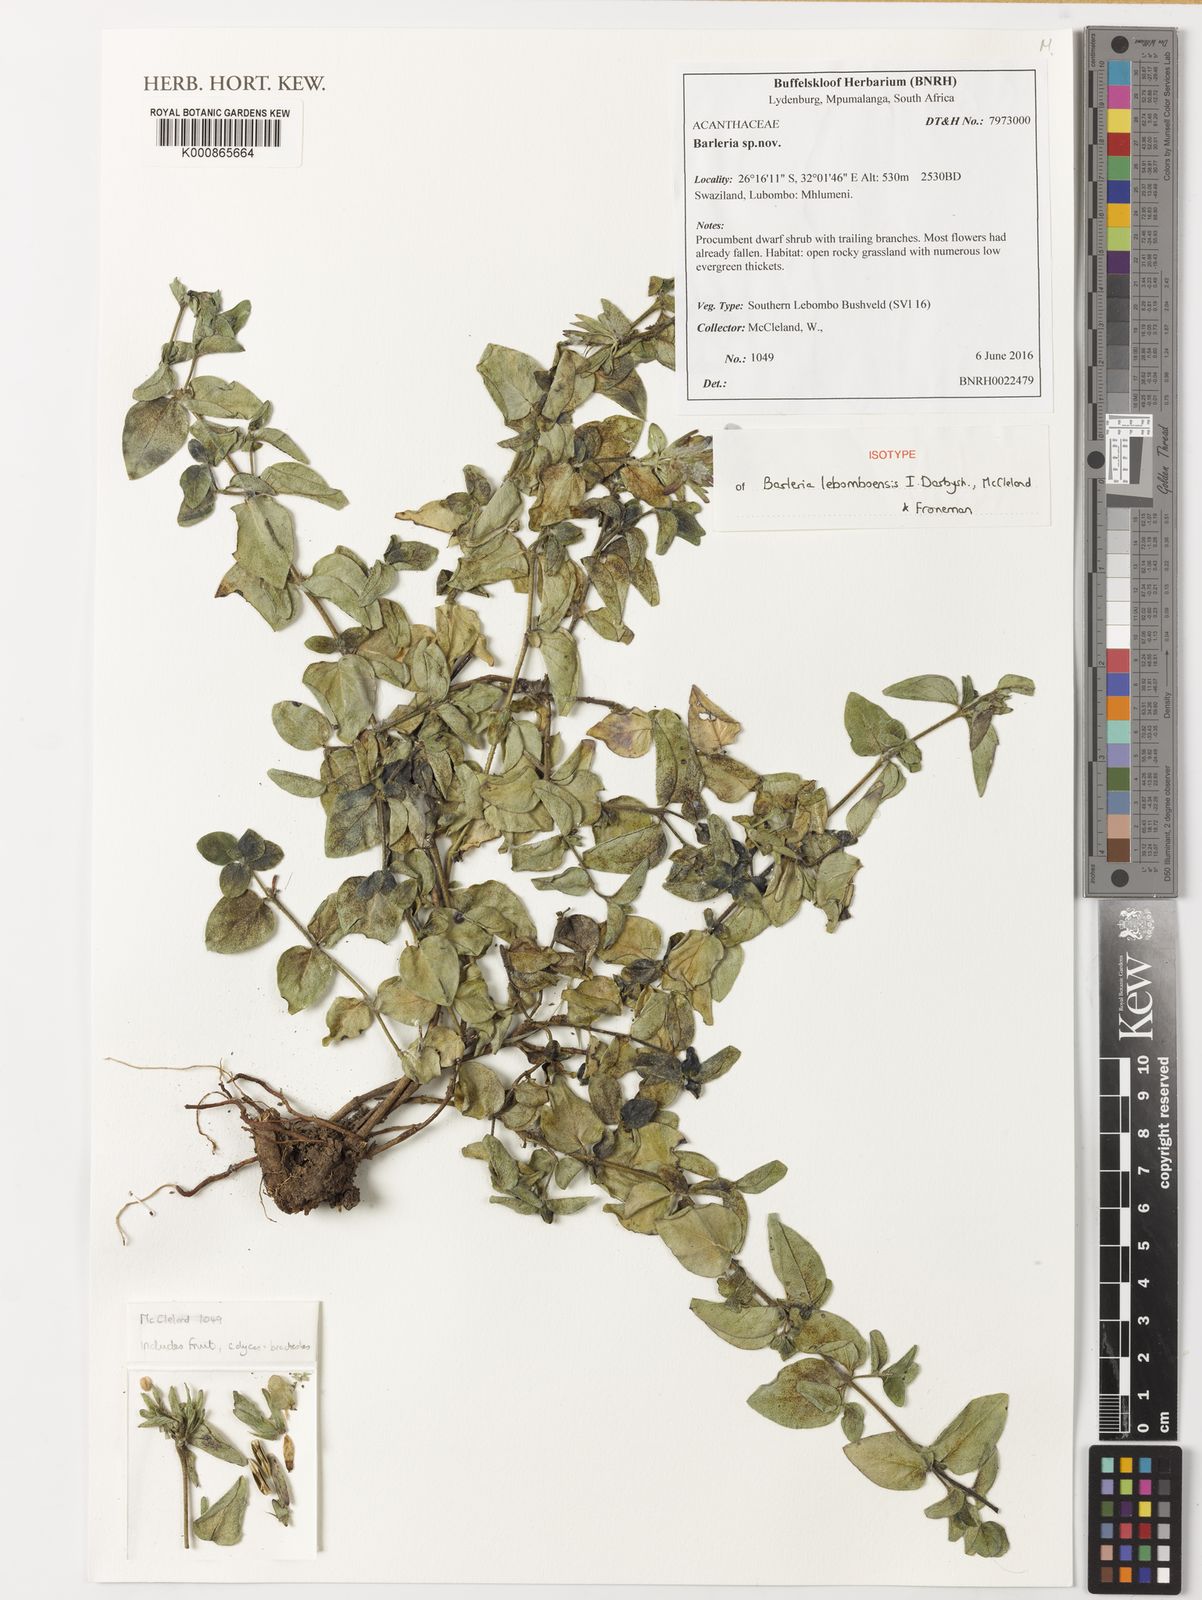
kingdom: Plantae
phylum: Tracheophyta
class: Magnoliopsida
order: Lamiales
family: Acanthaceae
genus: Barleria
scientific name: Barleria lebomboensis
